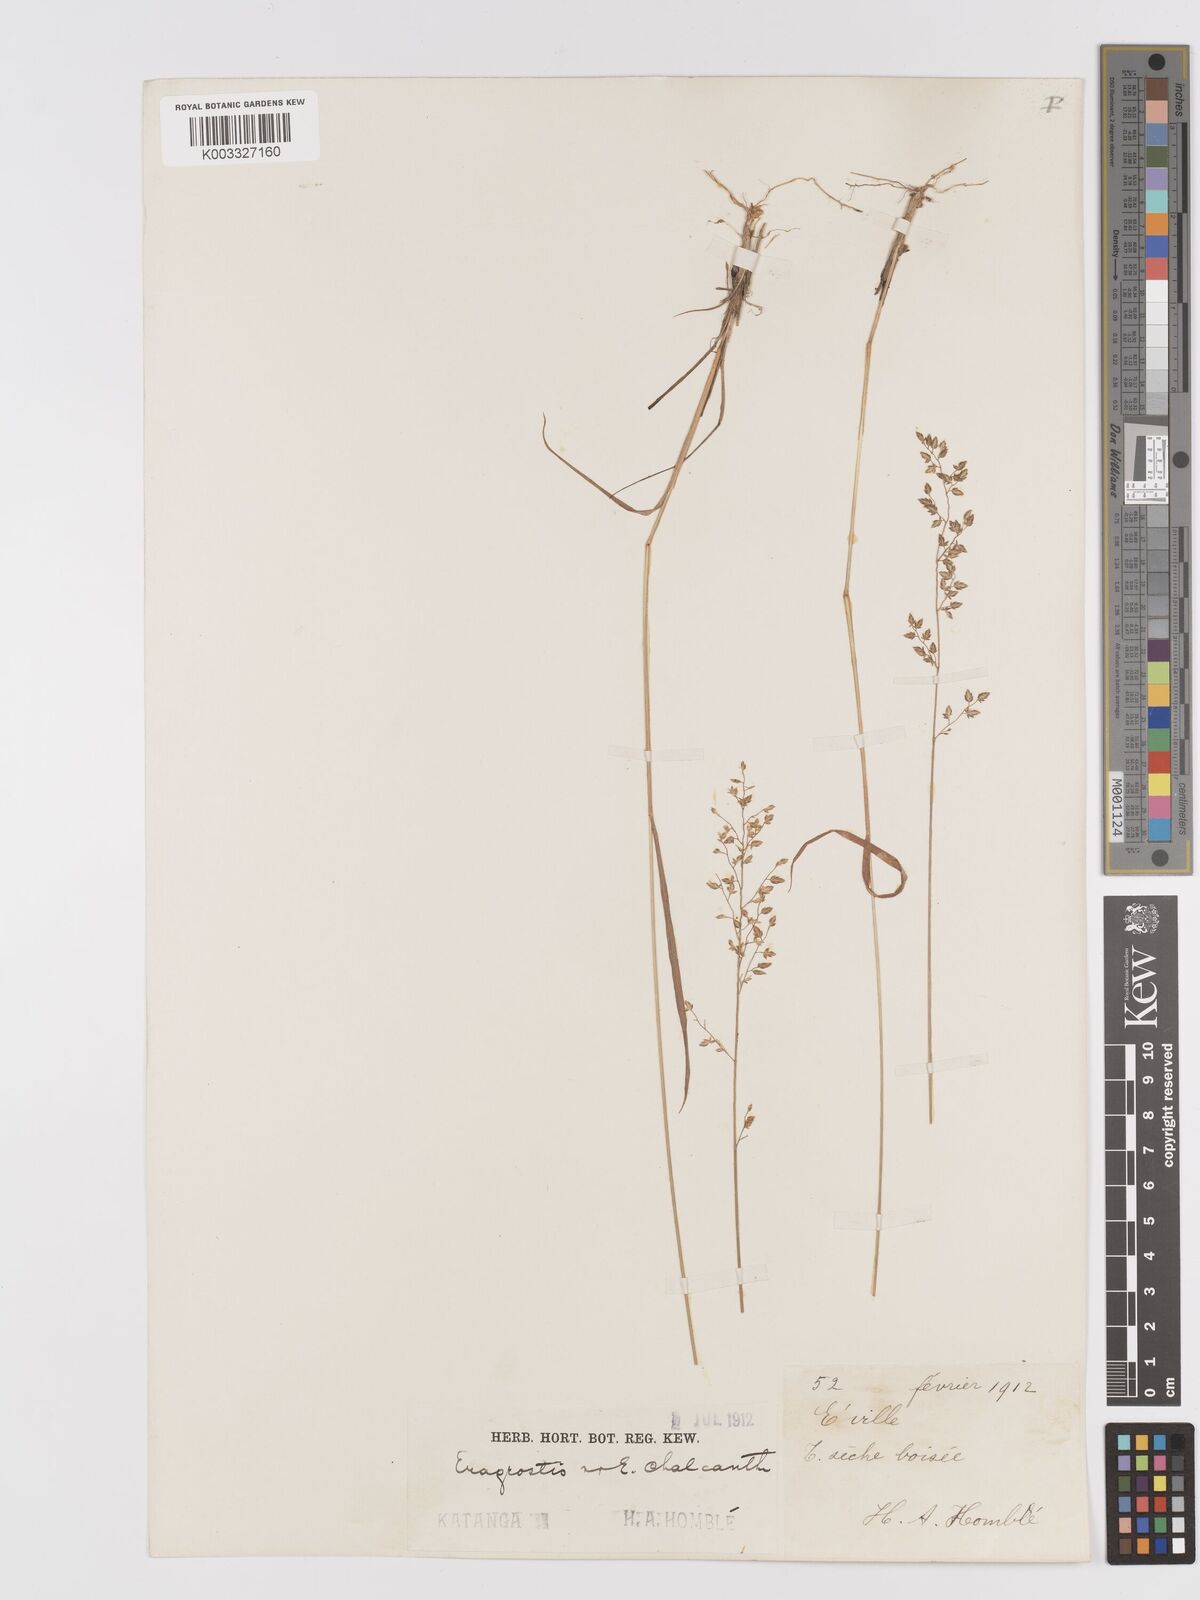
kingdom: Plantae
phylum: Tracheophyta
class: Liliopsida
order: Poales
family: Poaceae
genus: Eragrostis
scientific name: Eragrostis racemosa
